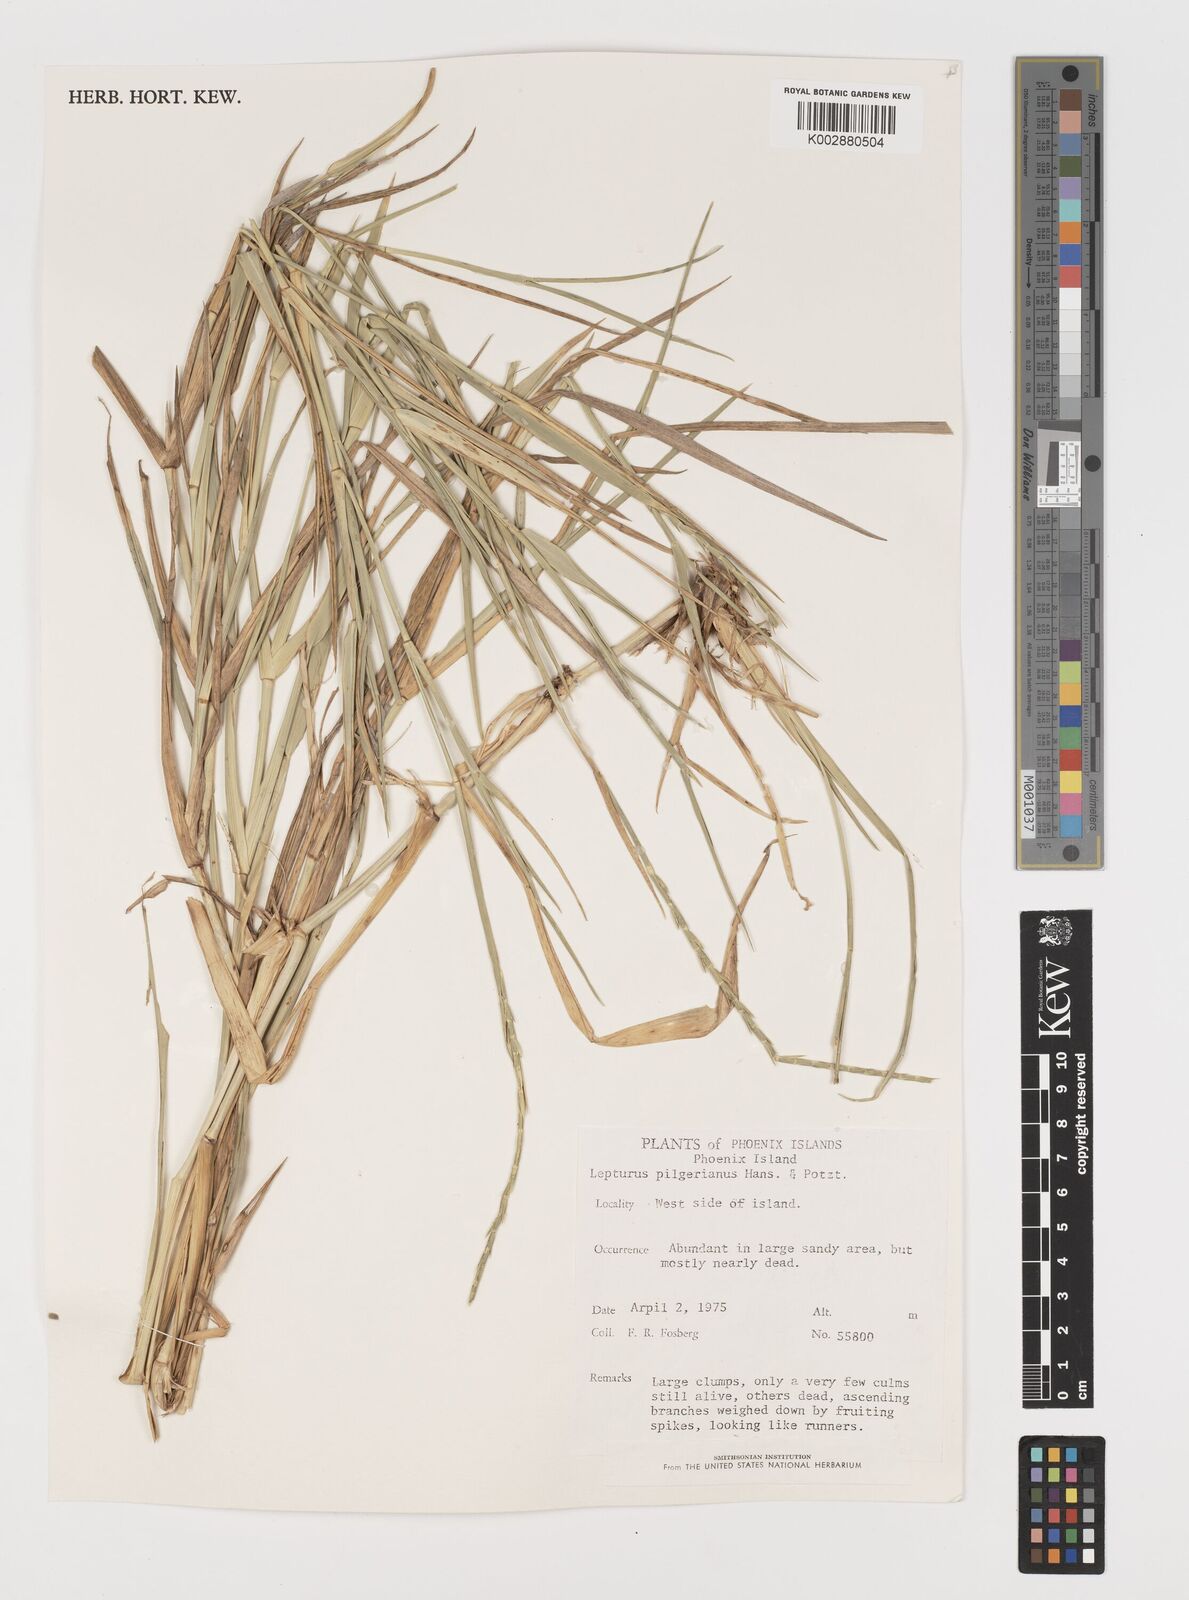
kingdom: Plantae
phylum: Tracheophyta
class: Liliopsida
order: Poales
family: Poaceae
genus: Lepturus
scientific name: Lepturus repens
